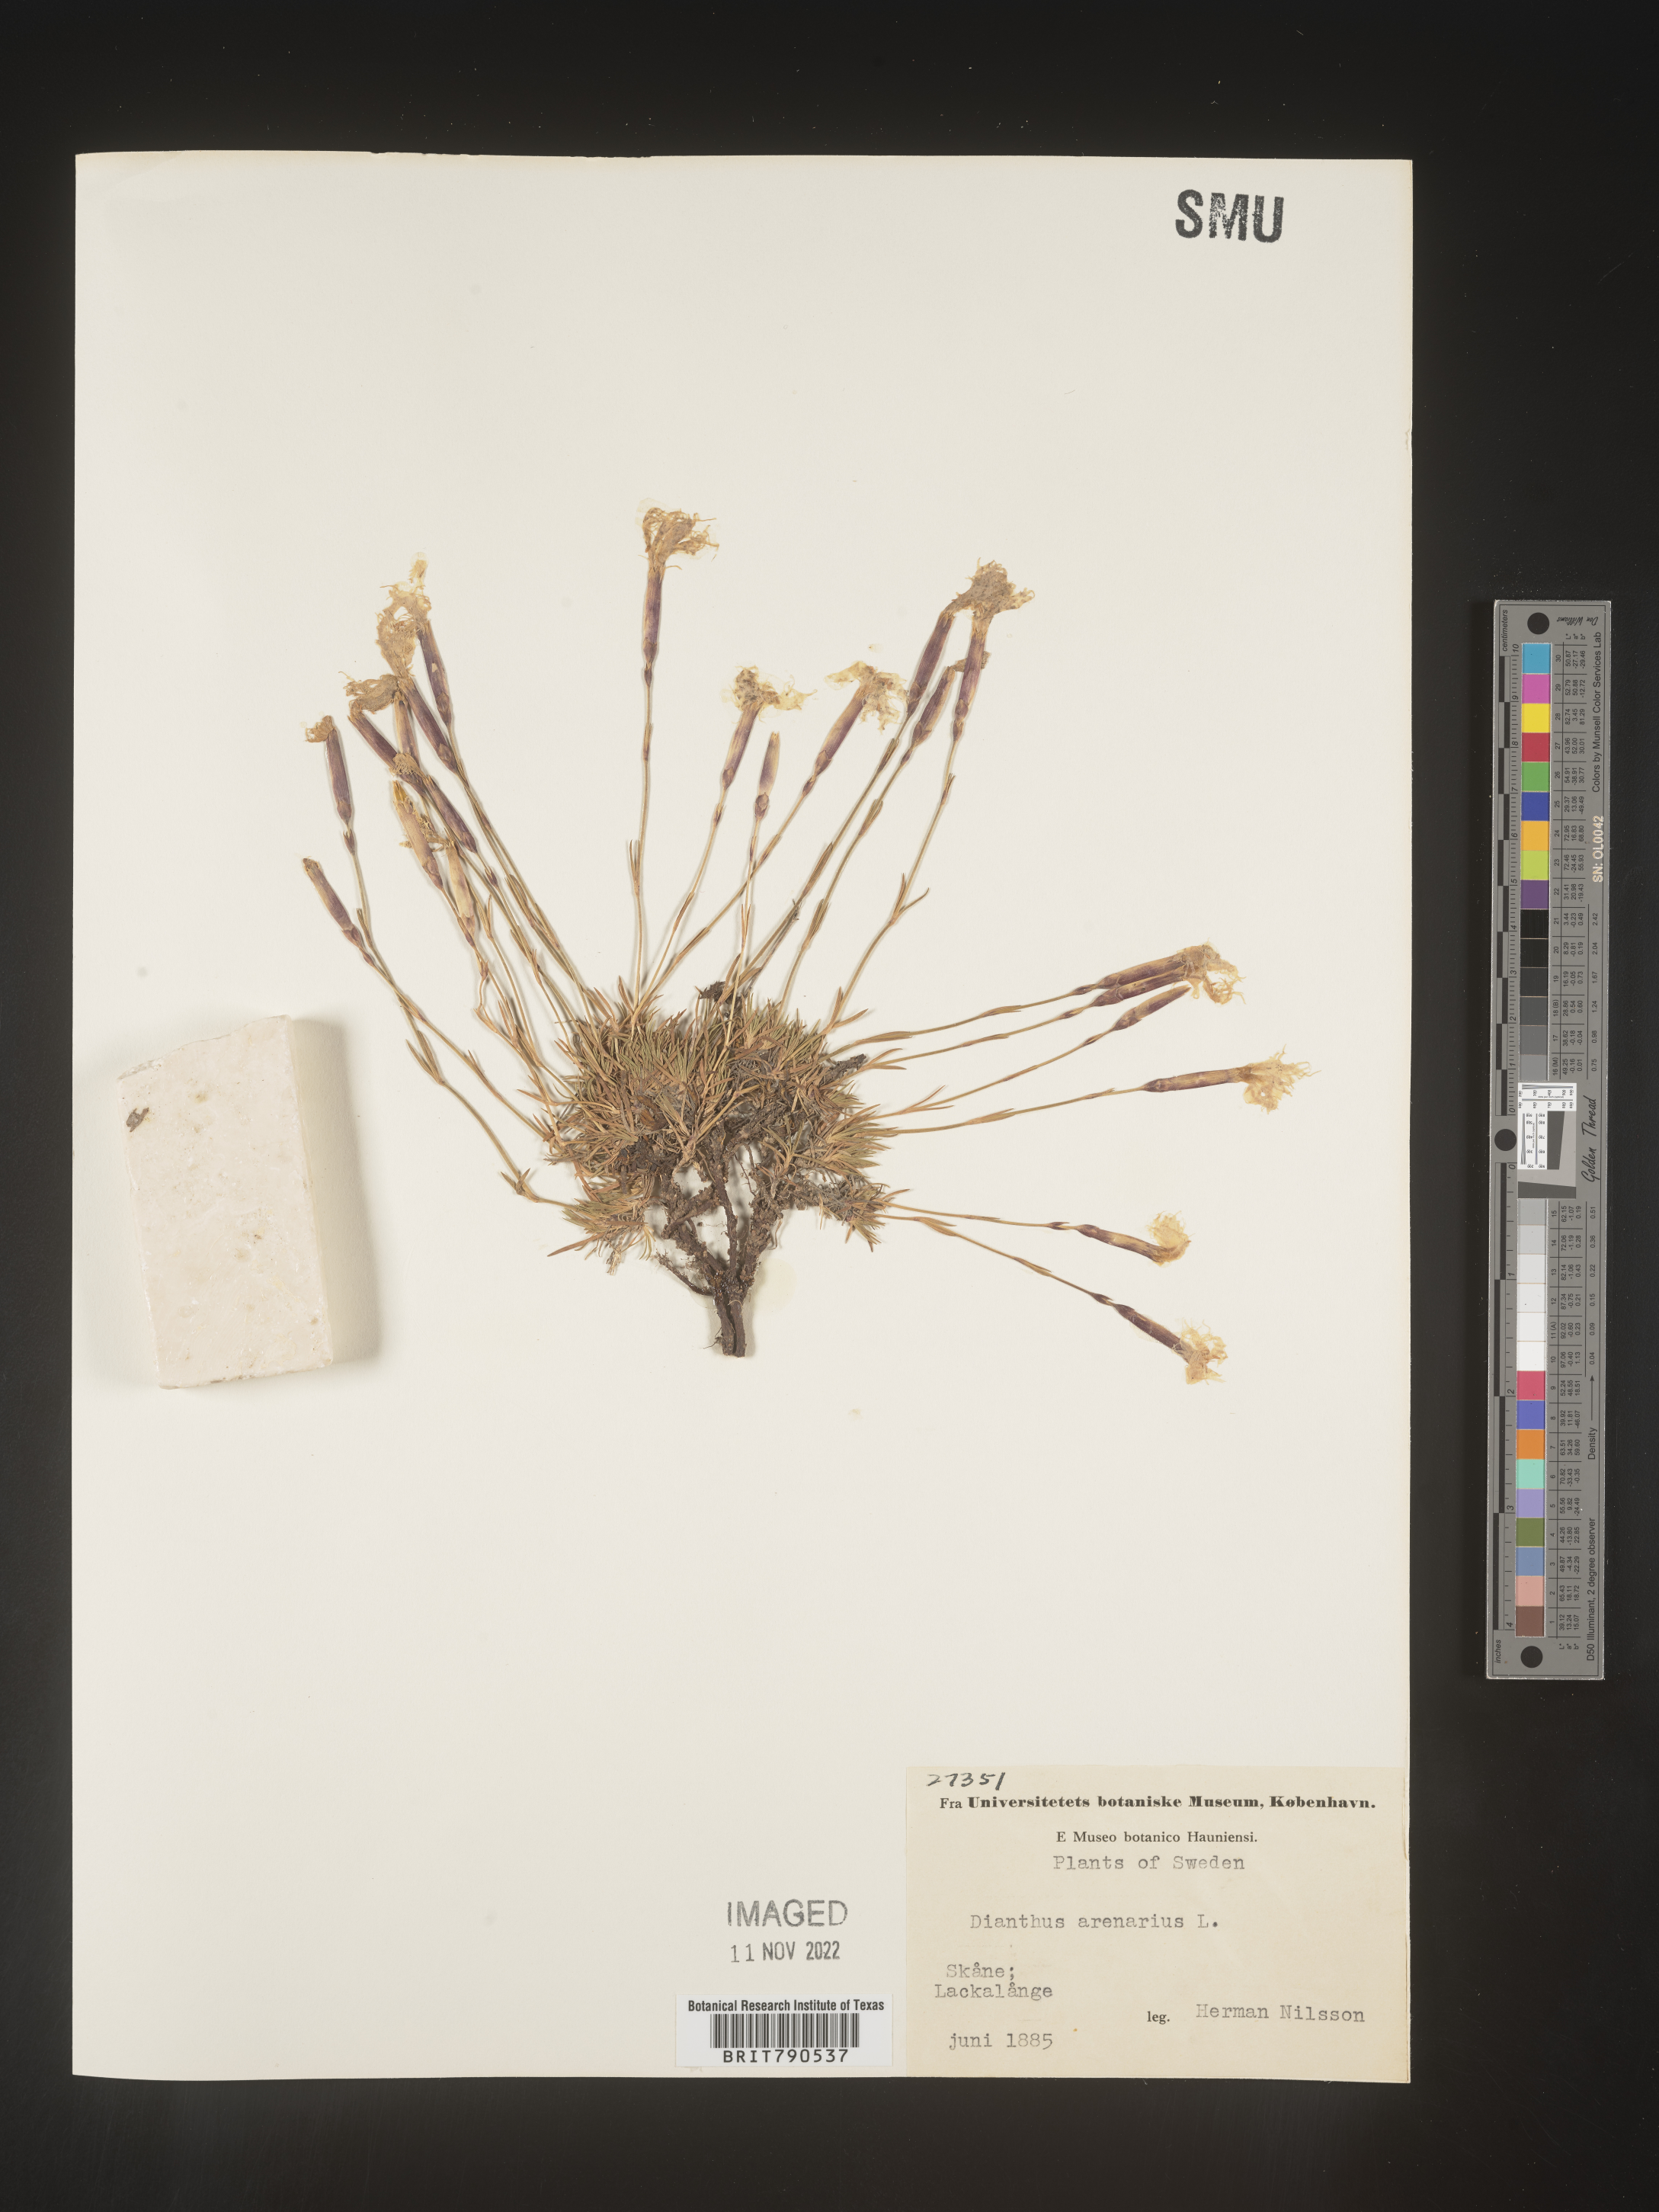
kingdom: Plantae
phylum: Tracheophyta
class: Magnoliopsida
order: Caryophyllales
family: Caryophyllaceae
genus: Dianthus
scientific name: Dianthus
